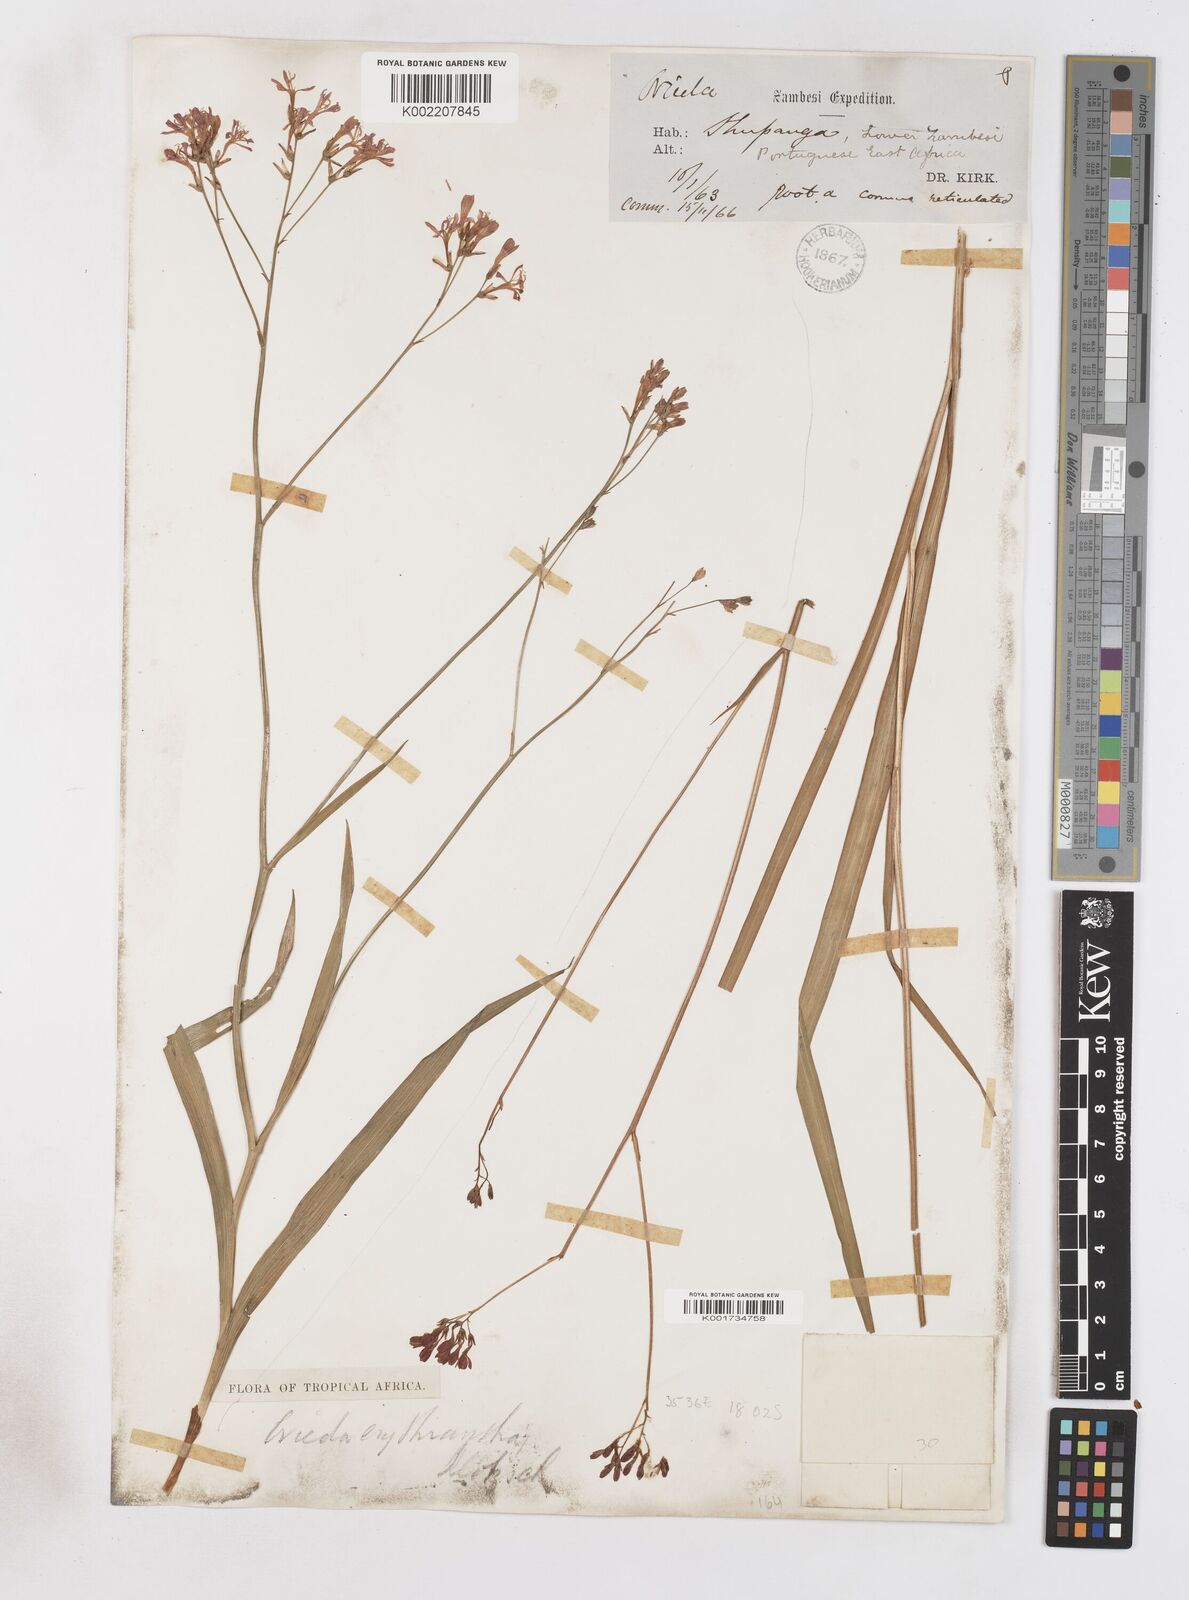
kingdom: Plantae
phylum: Tracheophyta
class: Liliopsida
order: Asparagales
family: Iridaceae
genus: Afrosolen
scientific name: Afrosolen erythranthus
